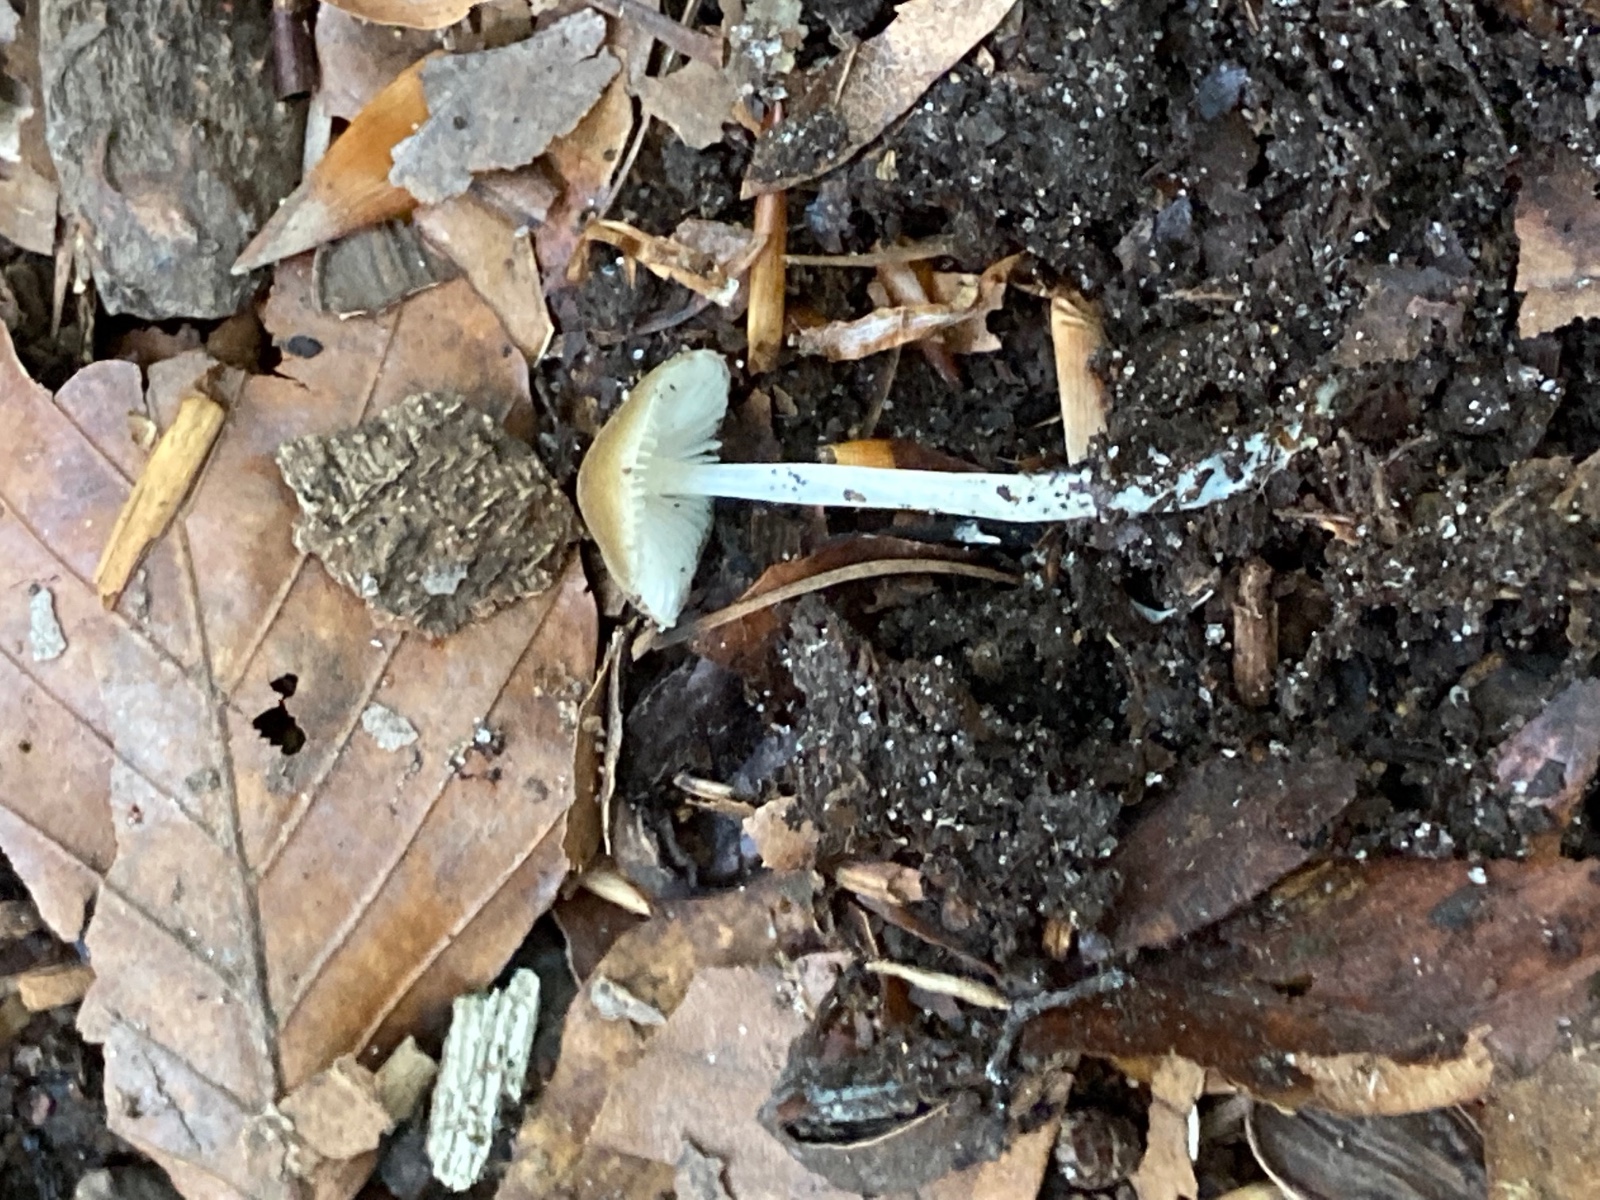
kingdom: Fungi
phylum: Basidiomycota
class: Agaricomycetes
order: Agaricales
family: Porotheleaceae
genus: Hydropodia
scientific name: Hydropodia subalpina
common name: vår-fnugfod
